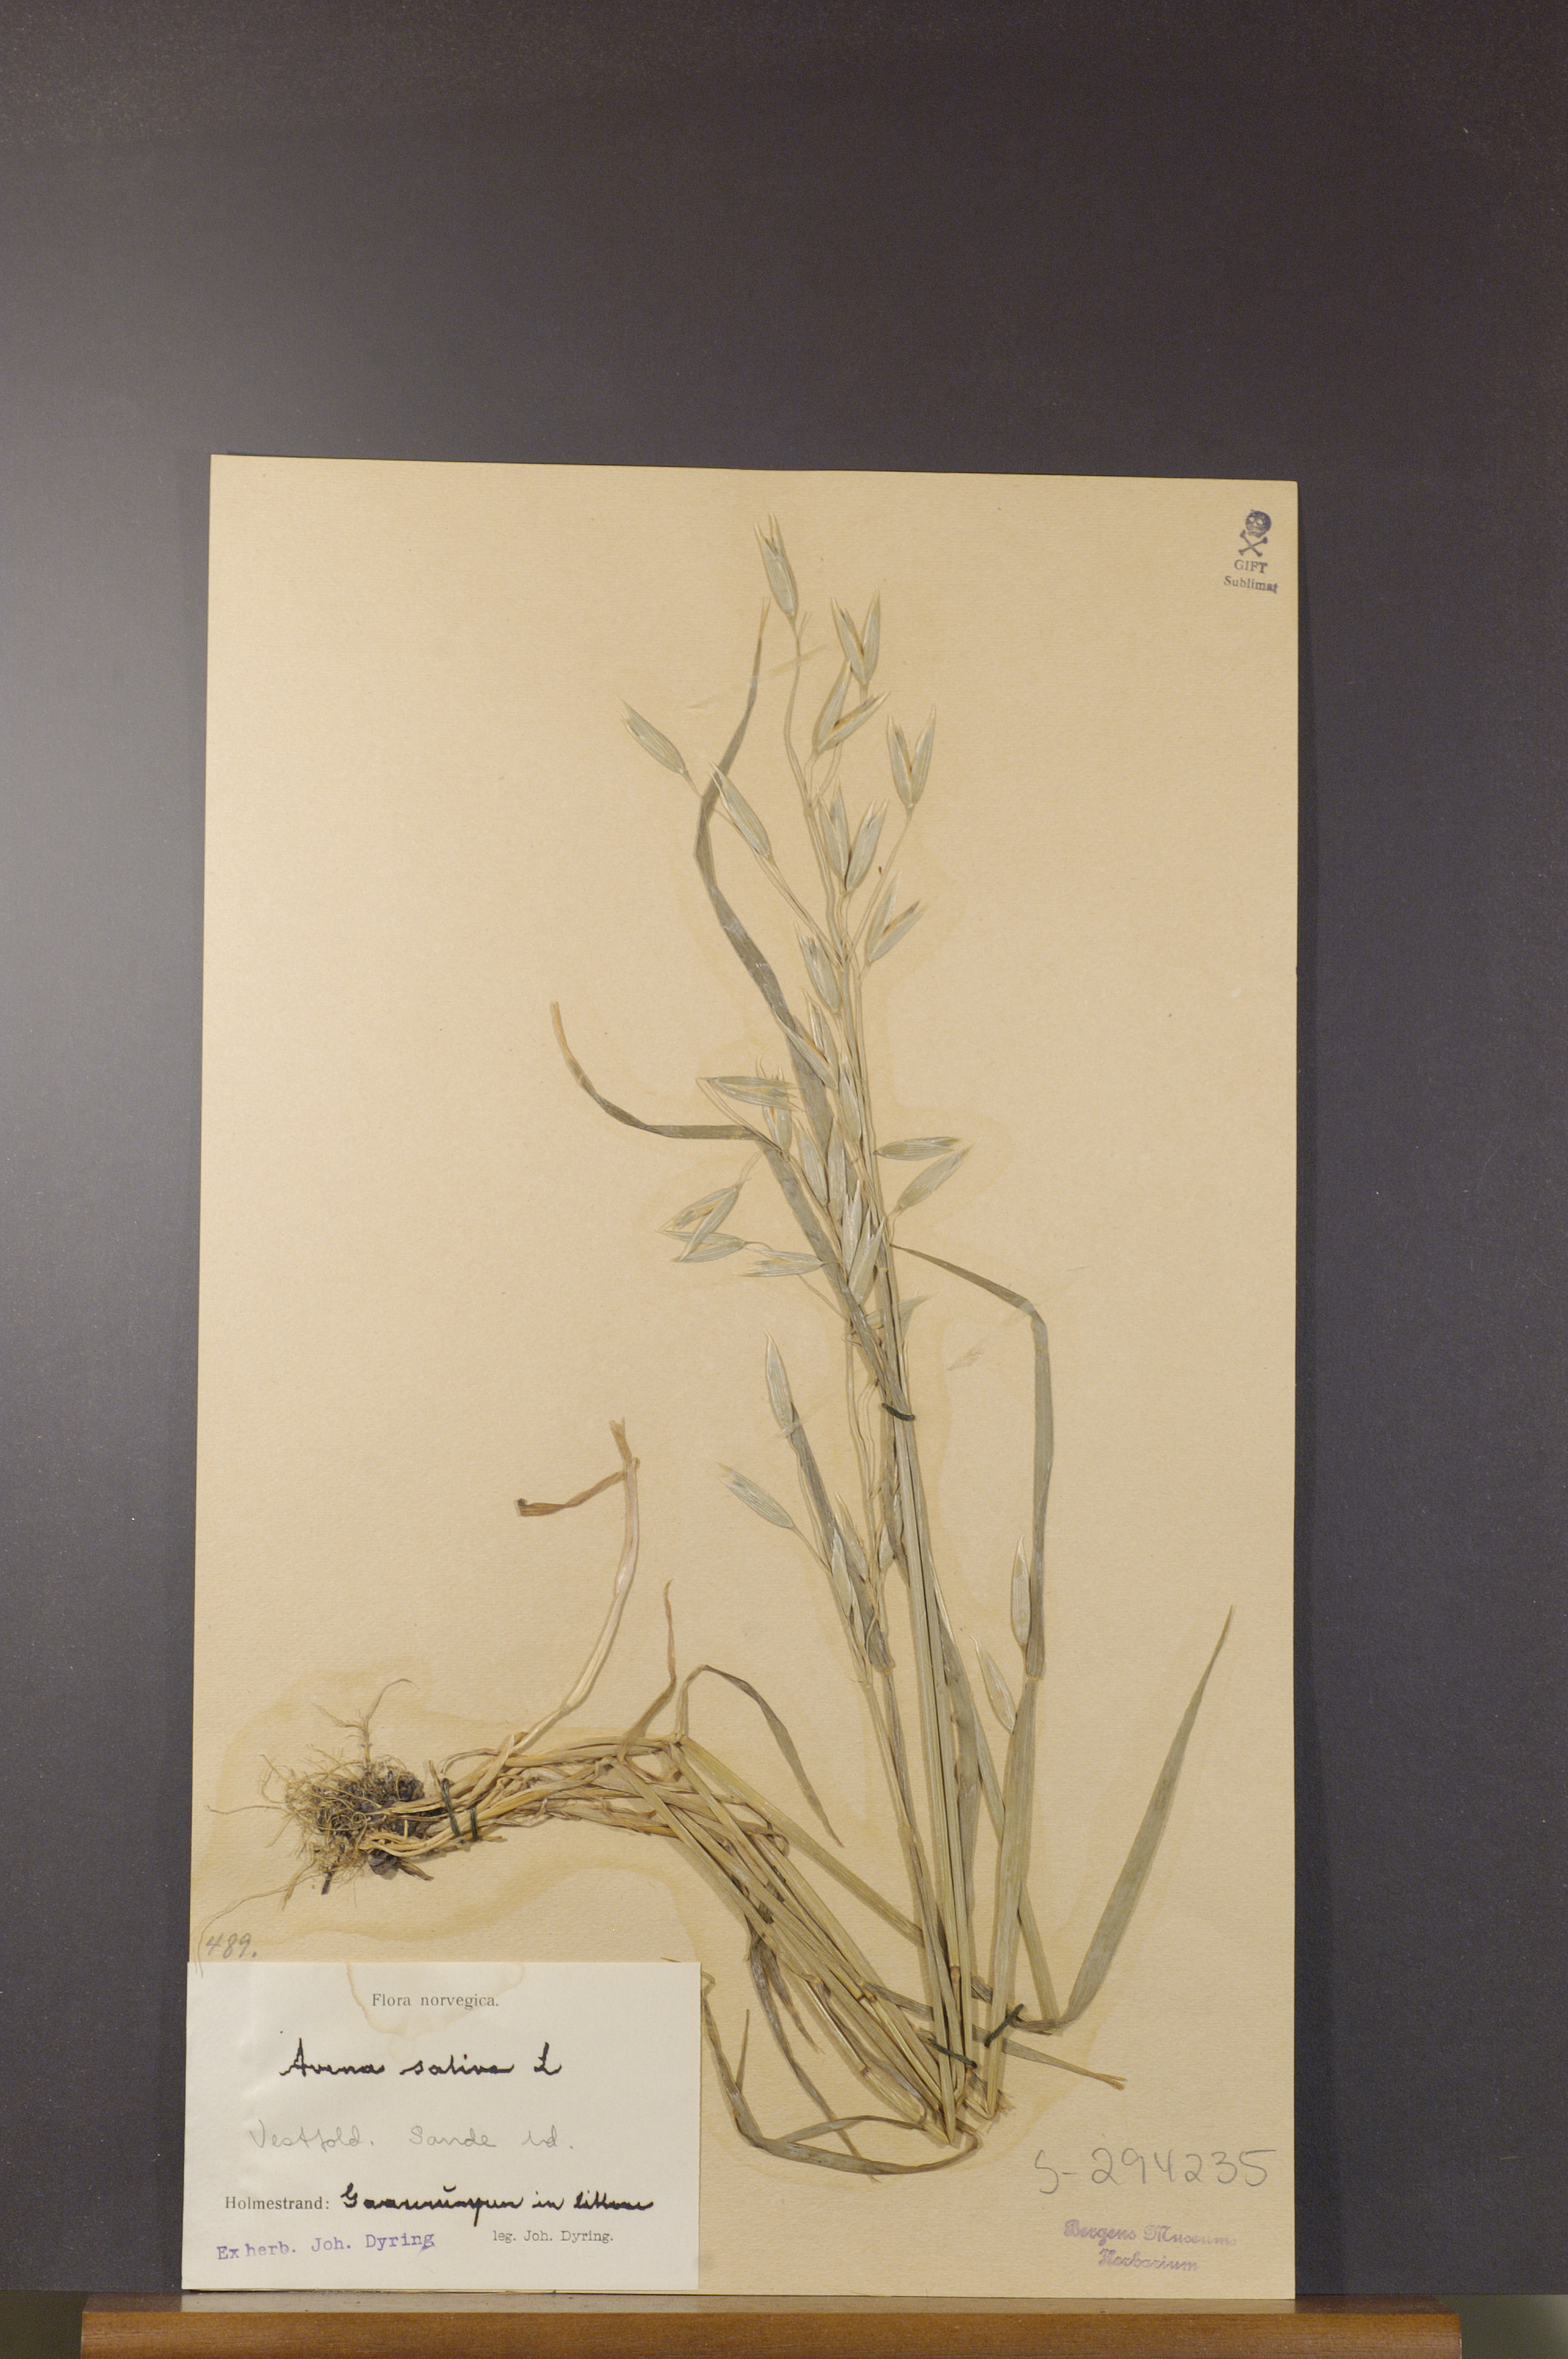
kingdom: Plantae
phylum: Tracheophyta
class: Liliopsida
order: Poales
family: Poaceae
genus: Avena
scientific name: Avena sativa
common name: Oat
